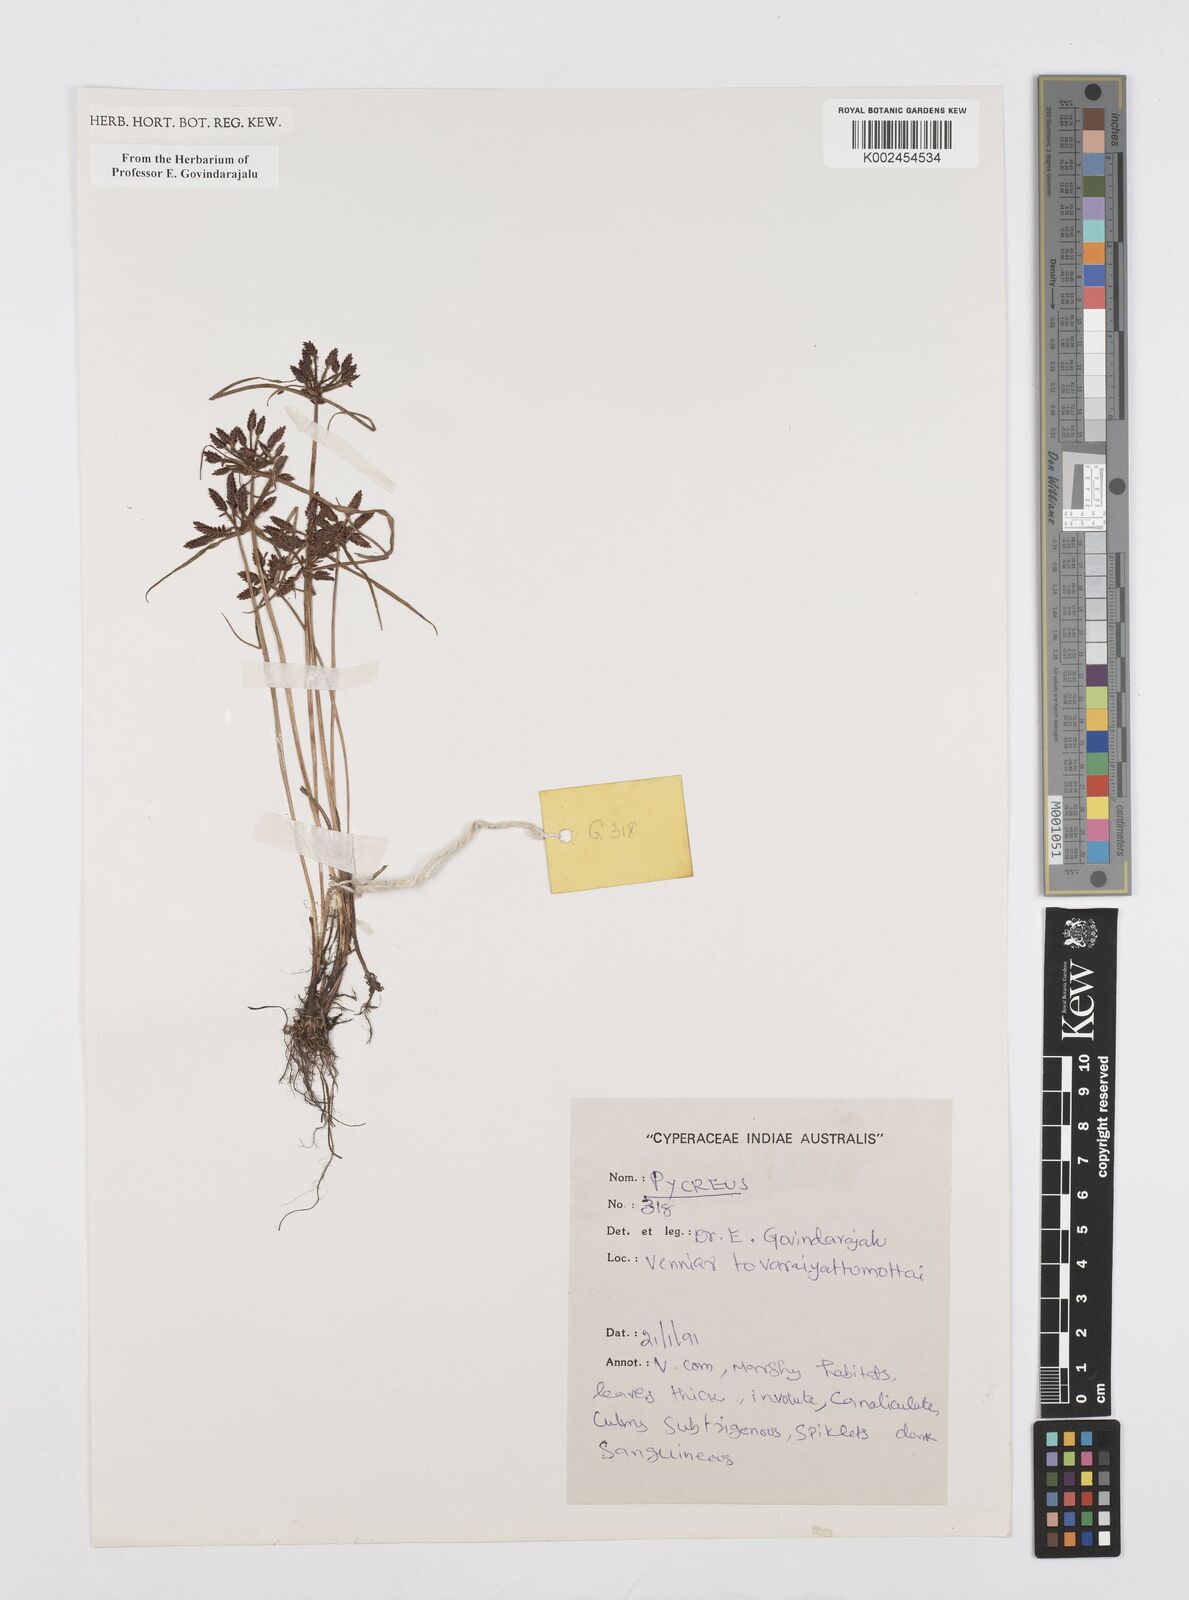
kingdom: Plantae
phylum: Tracheophyta
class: Liliopsida
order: Poales
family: Cyperaceae
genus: Cyperus
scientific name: Cyperus
